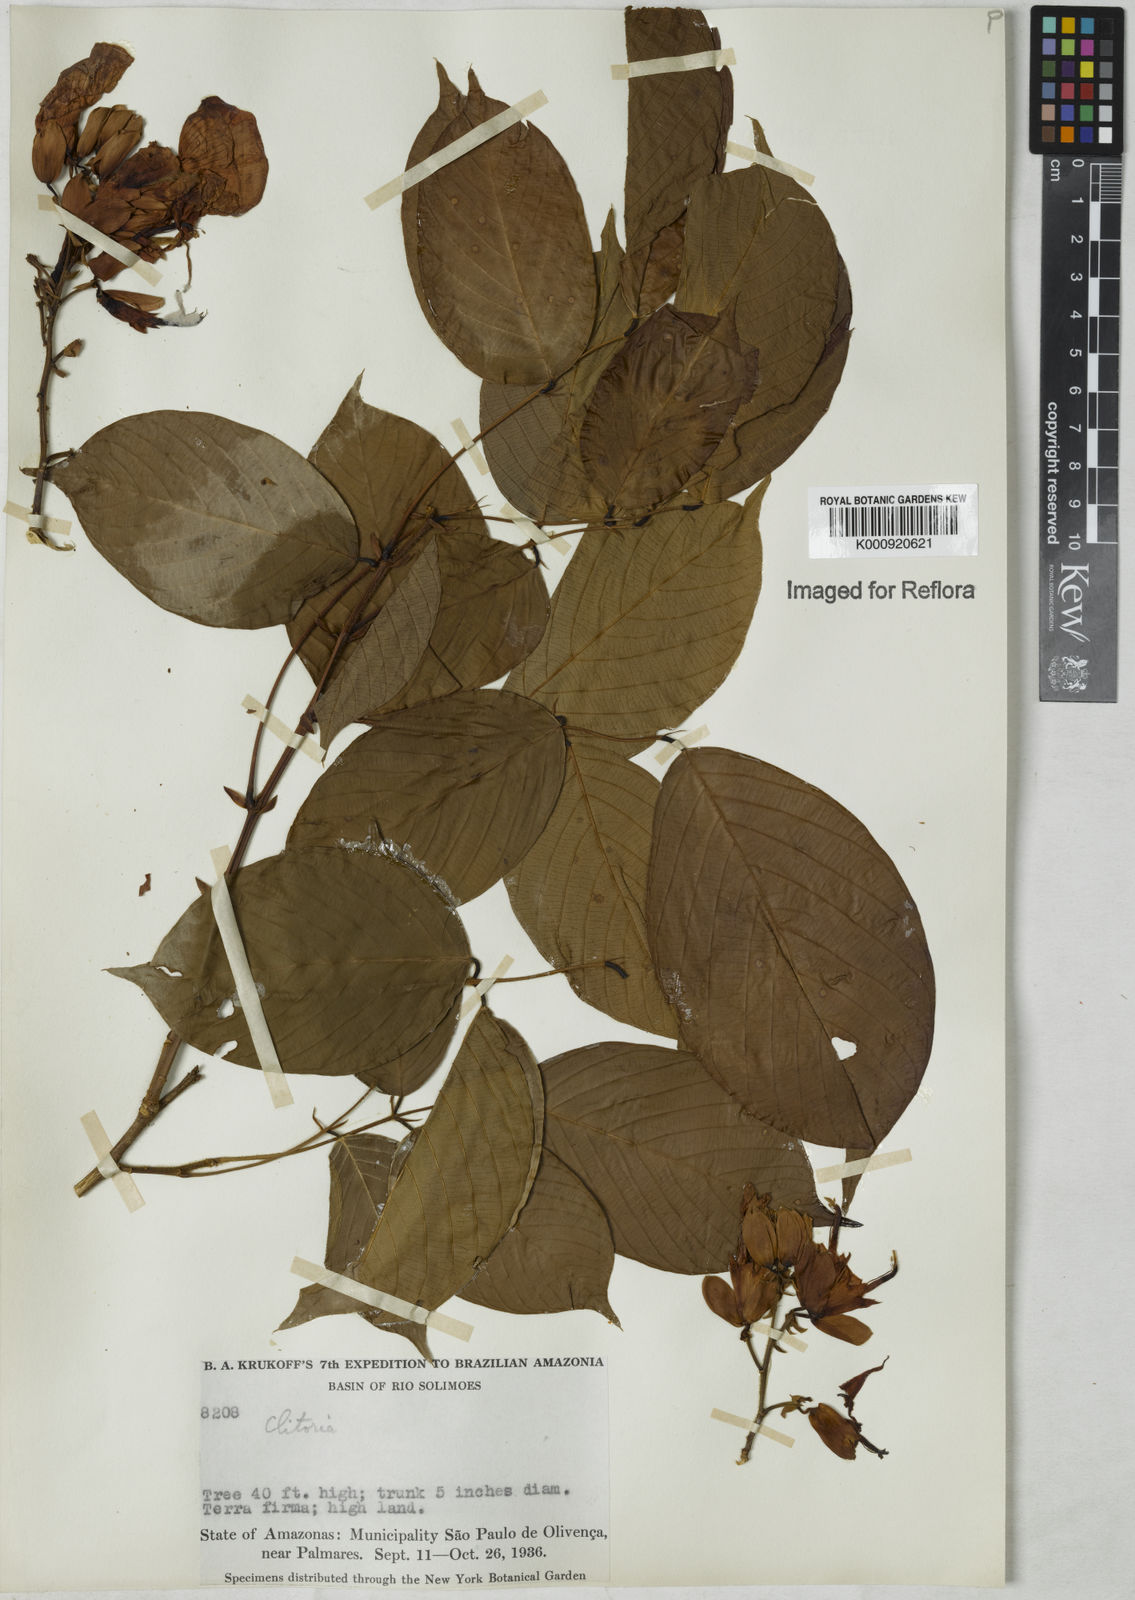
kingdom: Plantae
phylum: Tracheophyta
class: Magnoliopsida
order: Fabales
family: Fabaceae
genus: Clitoria
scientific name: Clitoria amazonum
